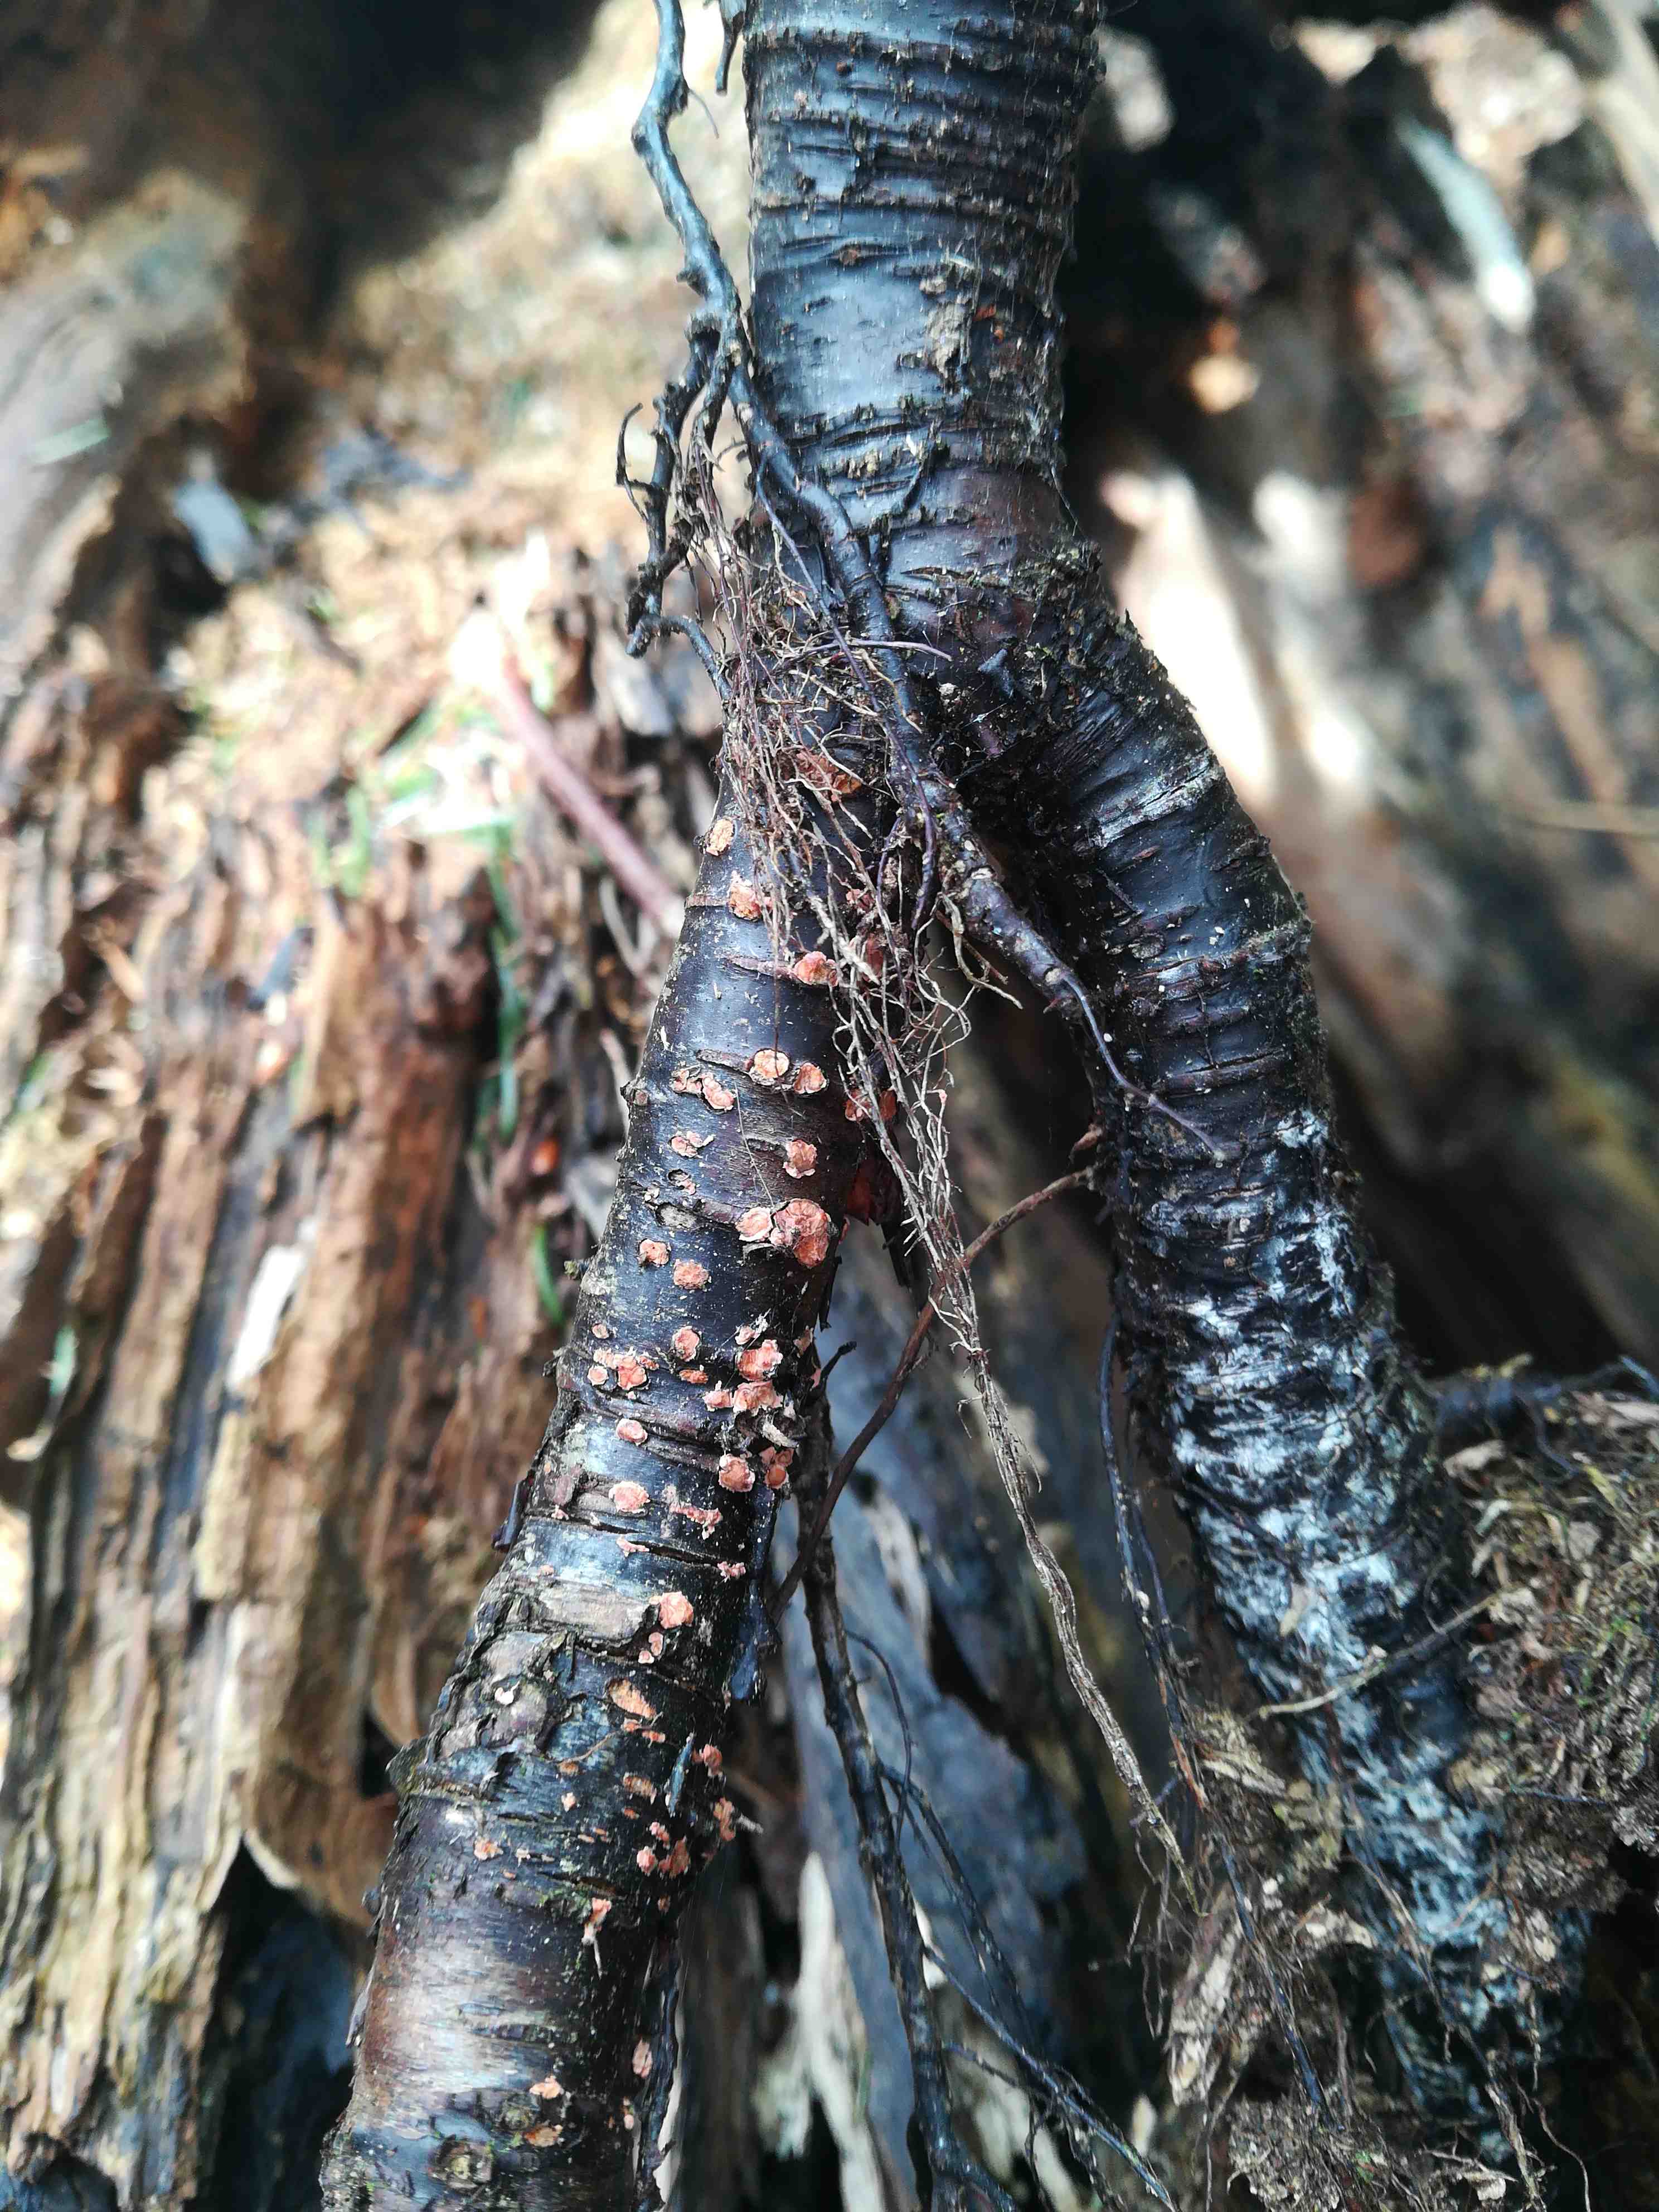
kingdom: Fungi
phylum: Ascomycota
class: Sordariomycetes
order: Hypocreales
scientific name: Hypocreales
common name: kødkerneordenen
